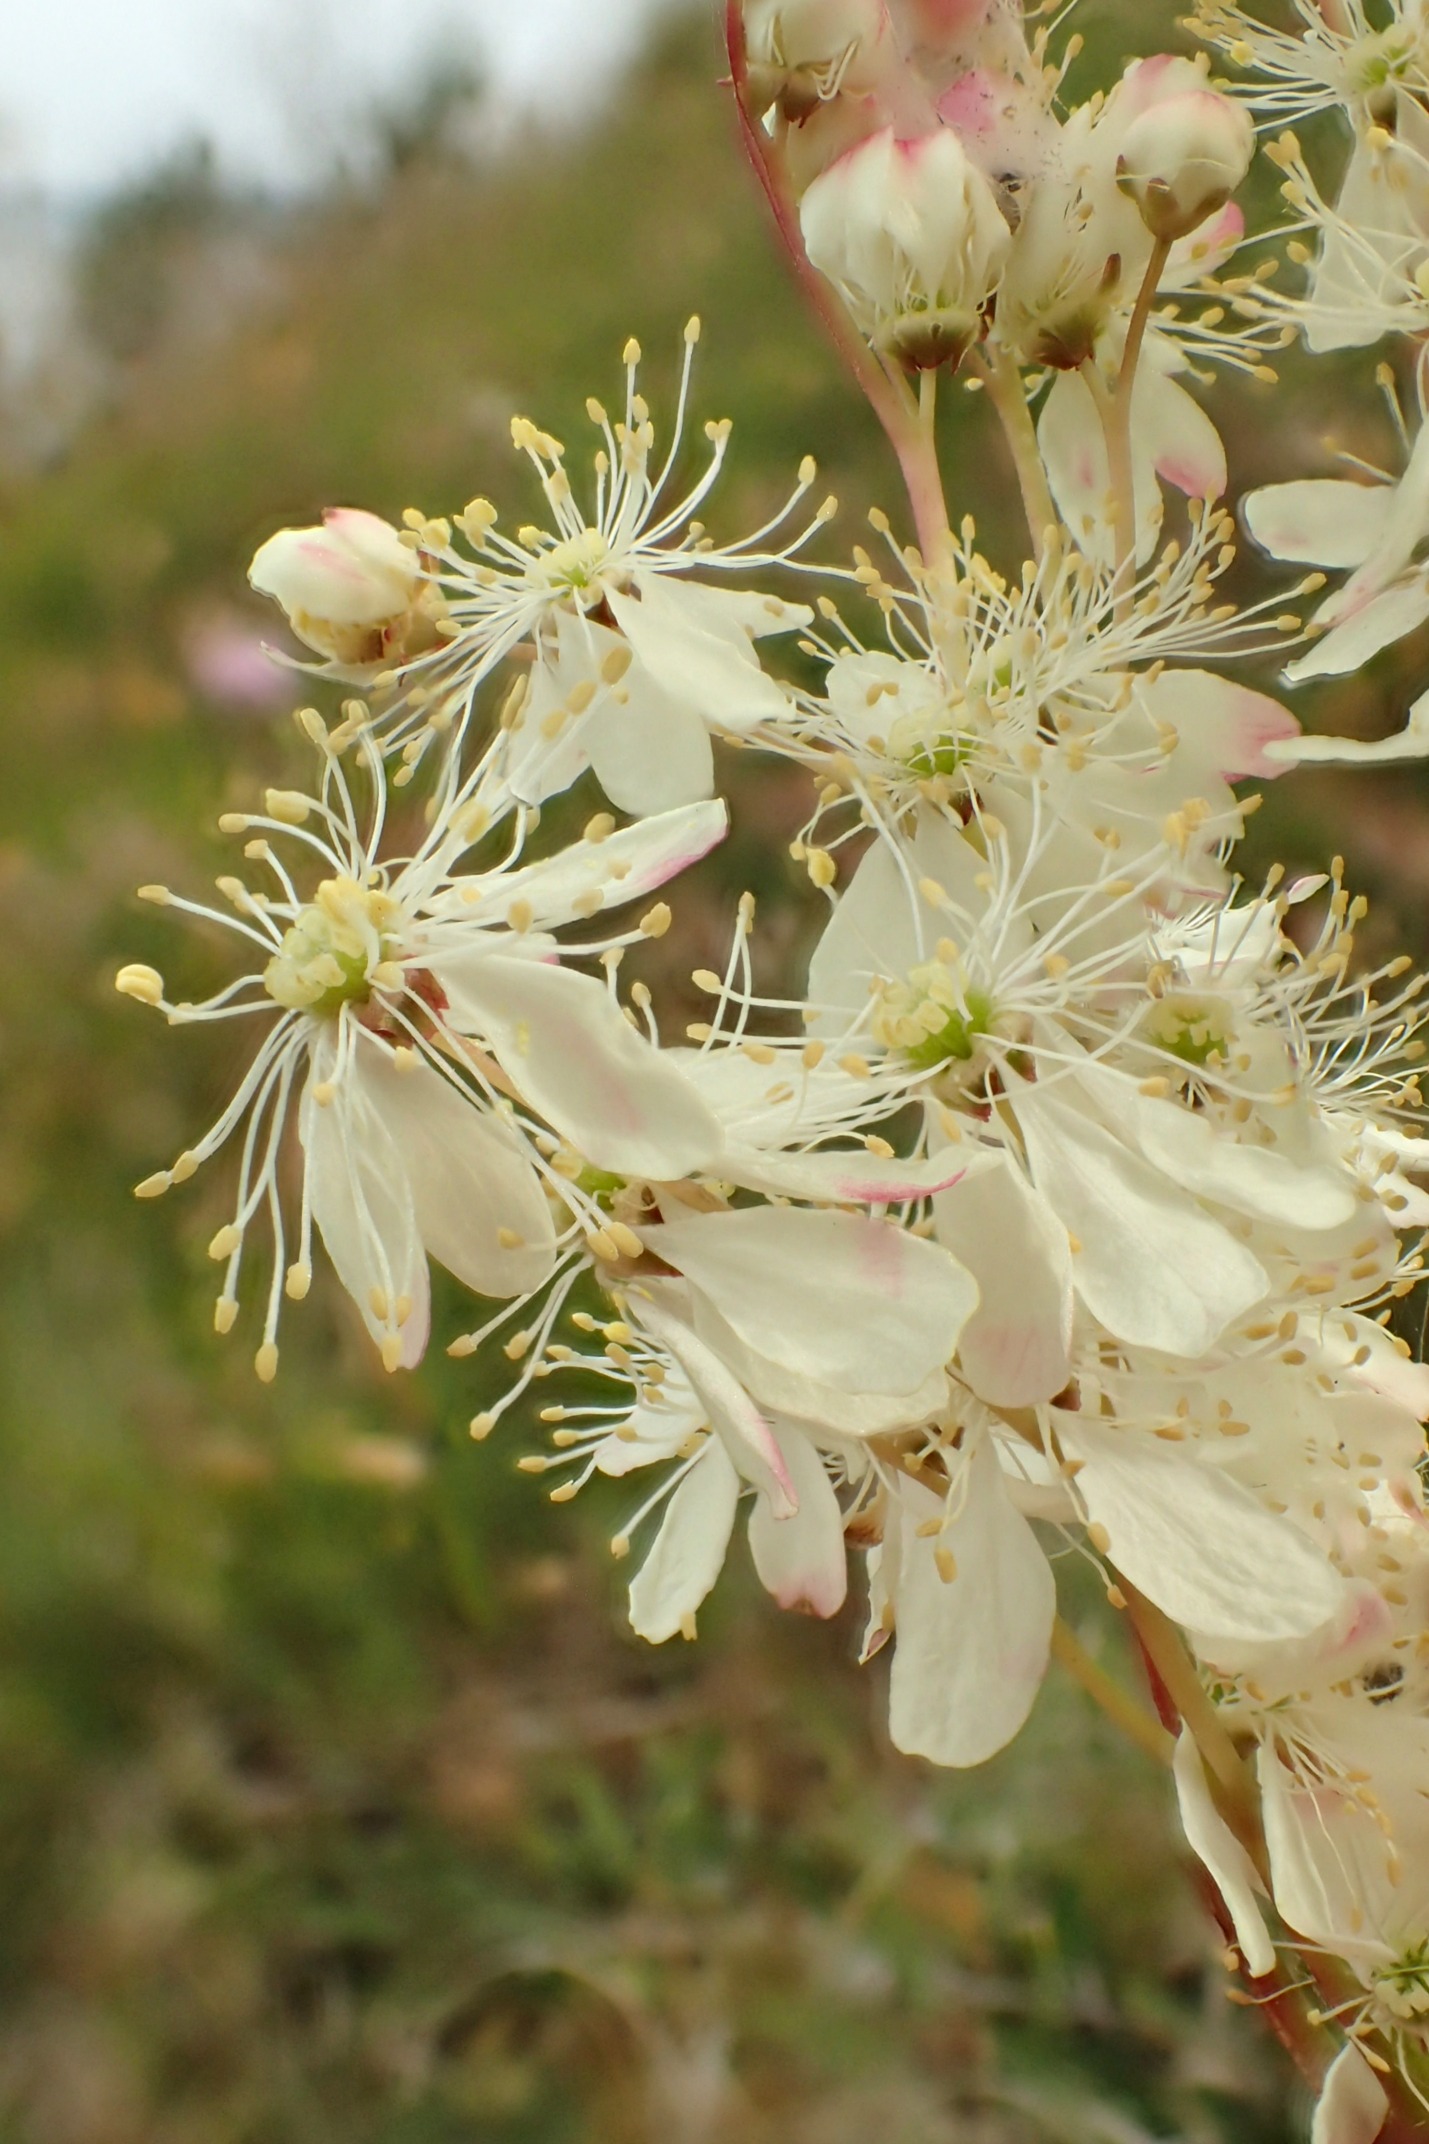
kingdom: Plantae
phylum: Tracheophyta
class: Magnoliopsida
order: Rosales
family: Rosaceae
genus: Filipendula
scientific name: Filipendula vulgaris
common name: Knoldet mjødurt
